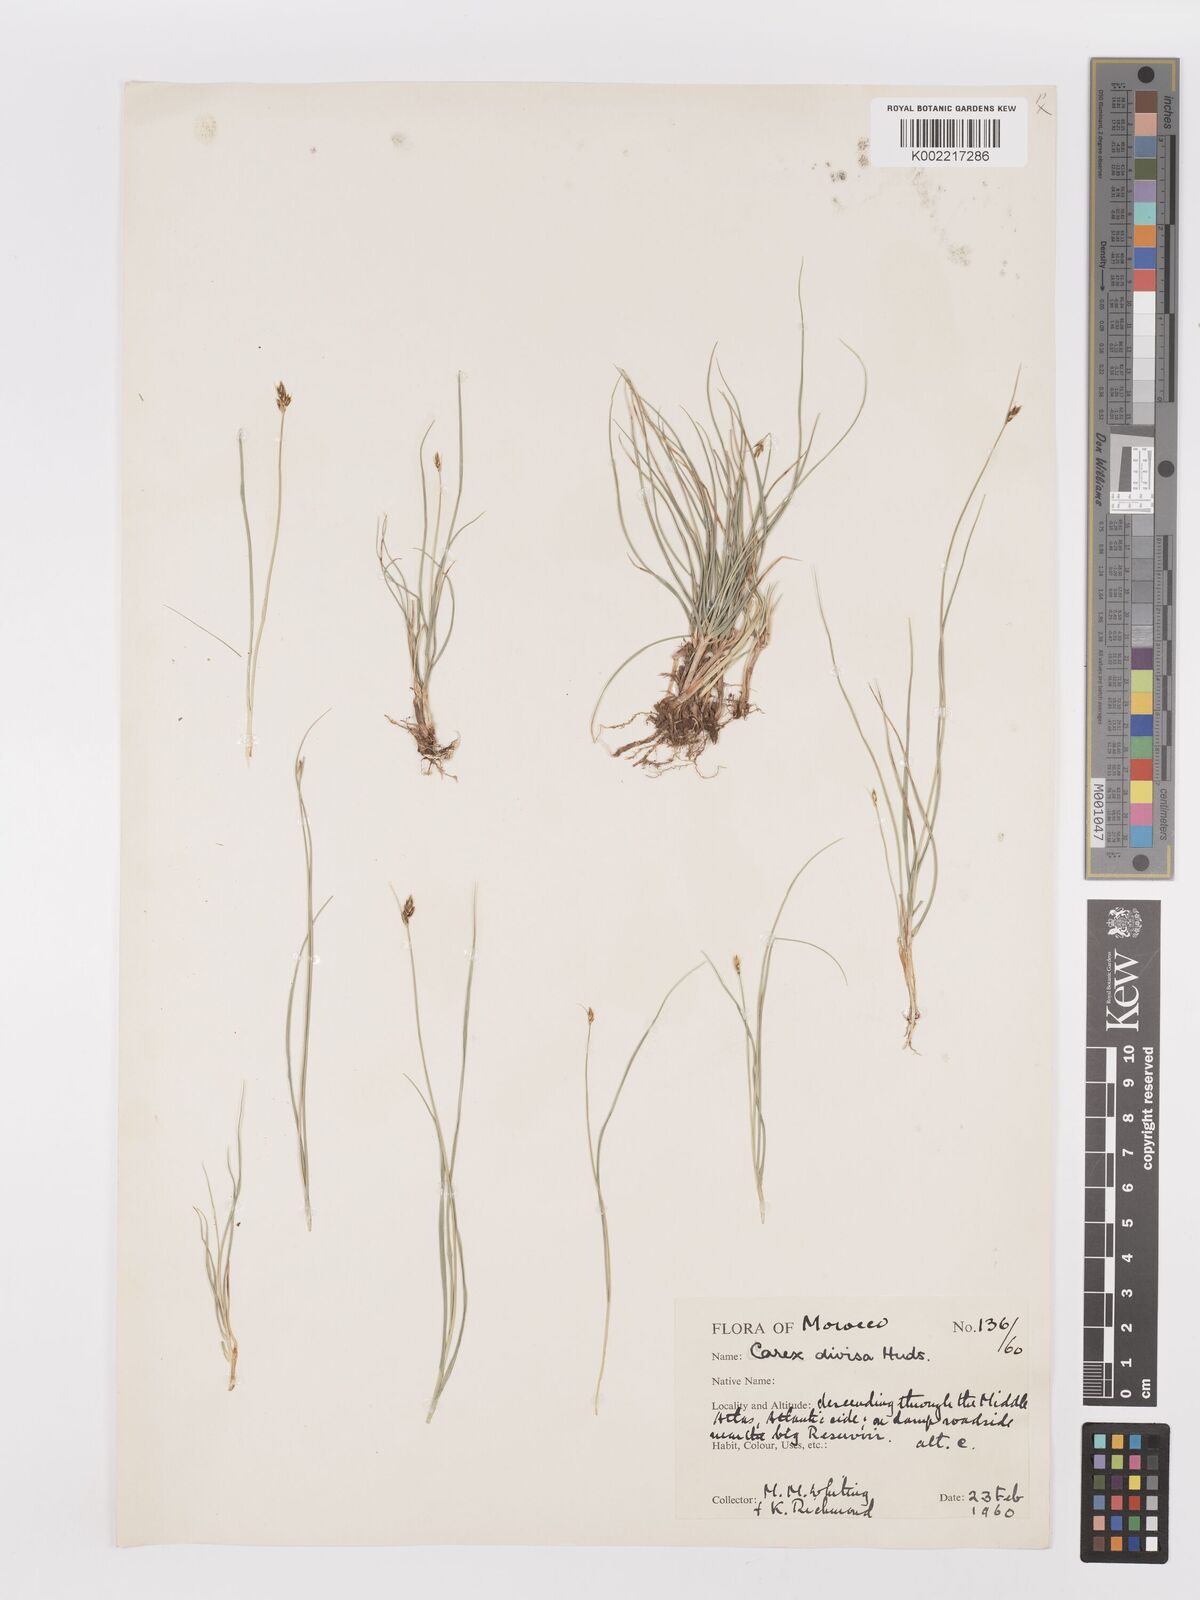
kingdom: Plantae
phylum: Tracheophyta
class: Liliopsida
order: Poales
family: Cyperaceae
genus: Carex
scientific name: Carex divisa
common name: Divided sedge
